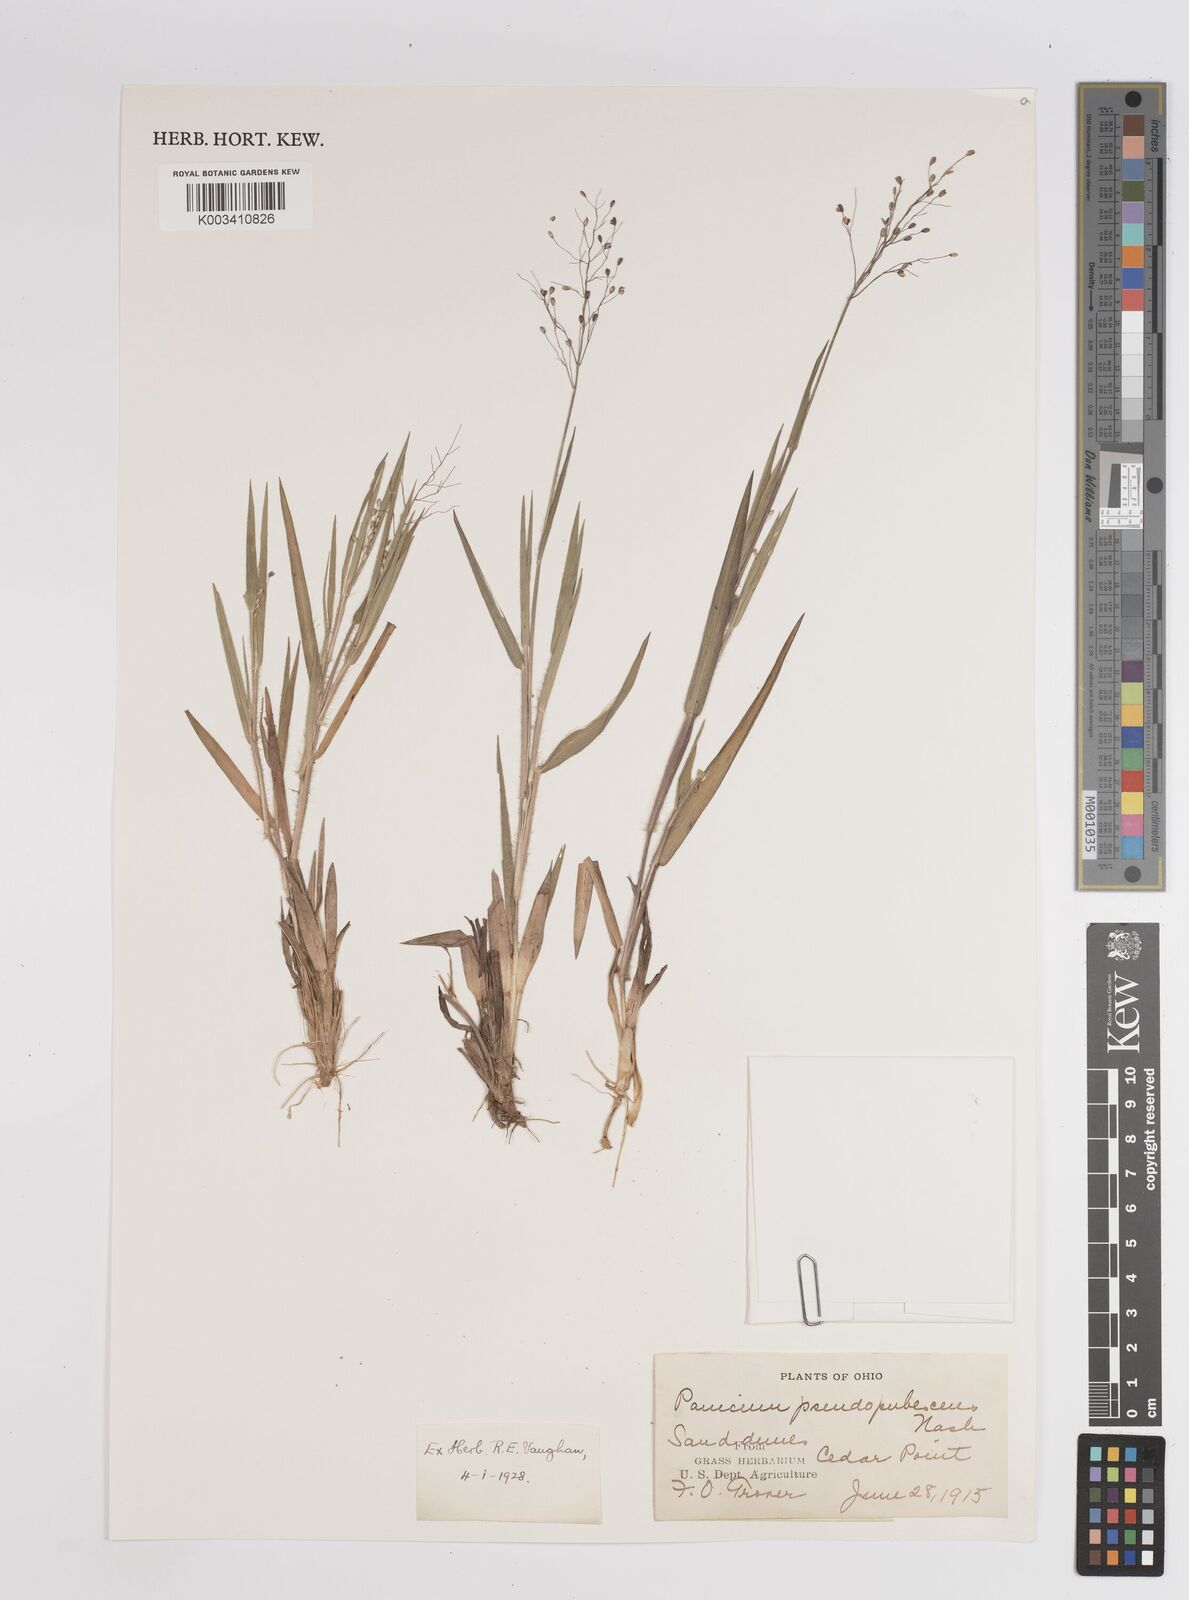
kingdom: Plantae
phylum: Tracheophyta
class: Liliopsida
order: Poales
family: Poaceae
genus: Dichanthelium
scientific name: Dichanthelium implicatum
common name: Slender-stemmed panicgrass
